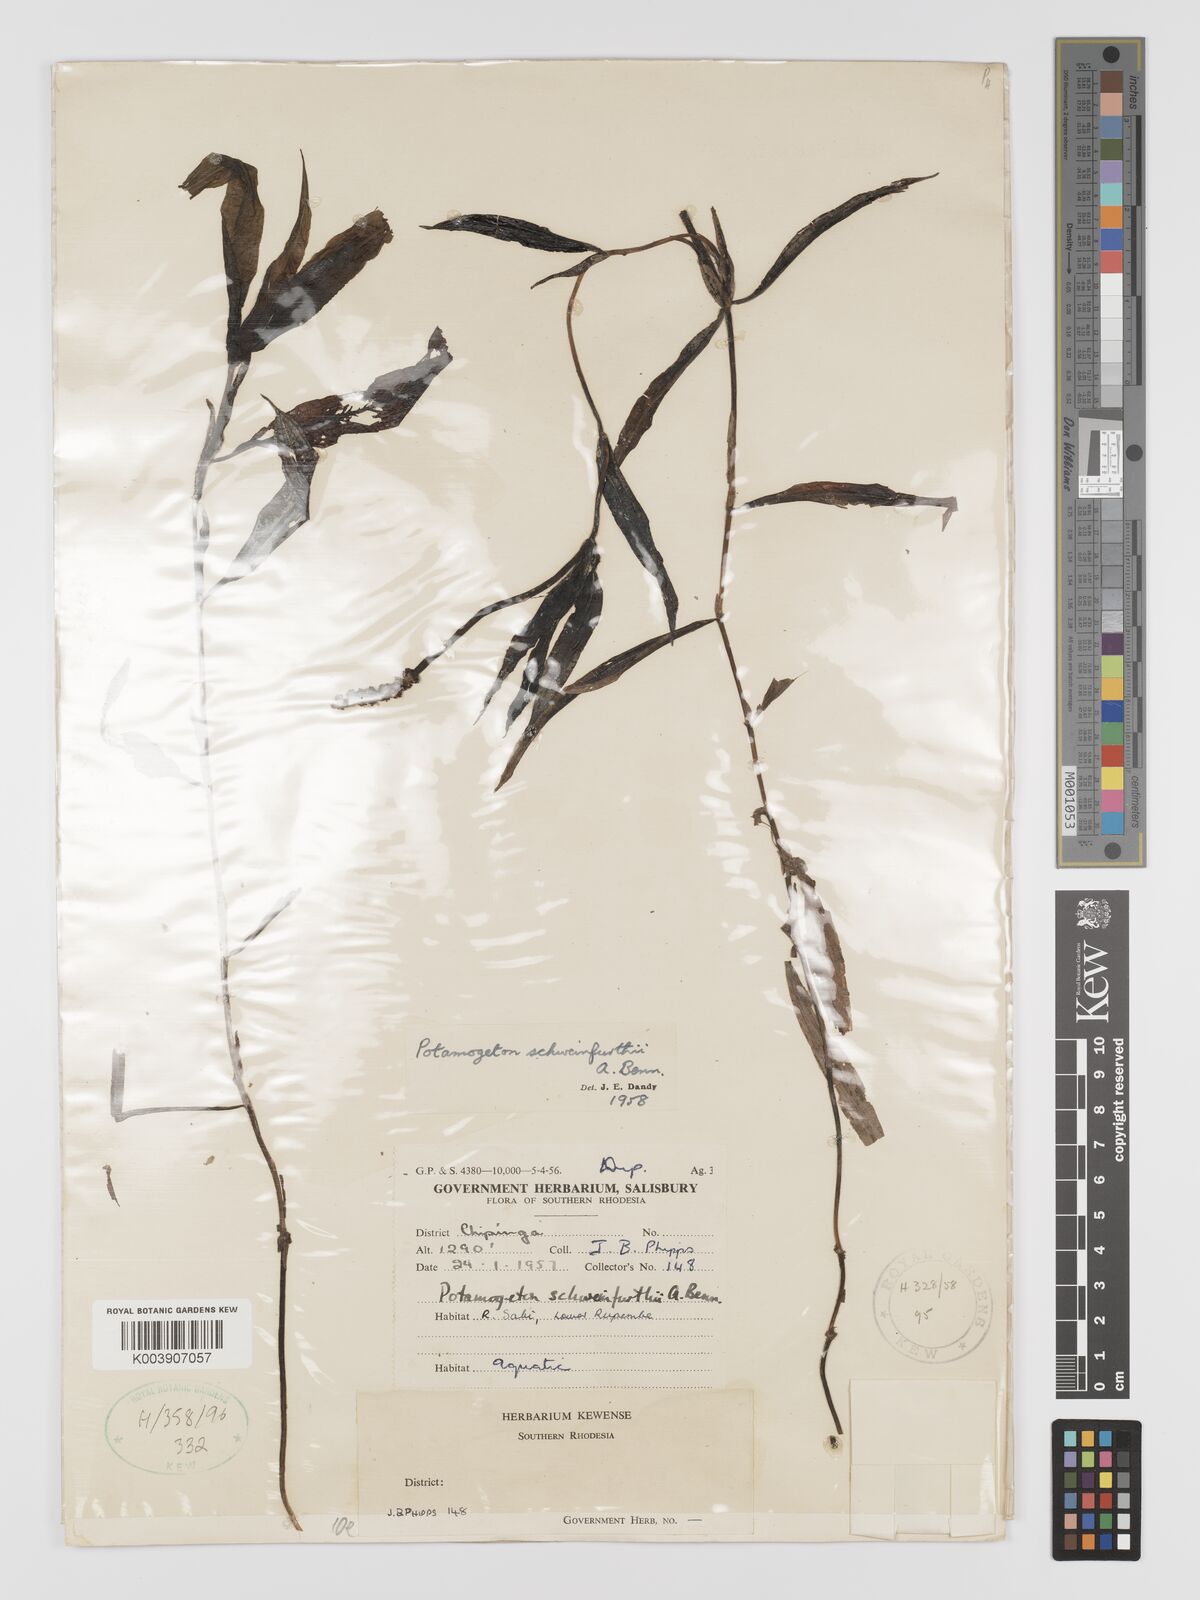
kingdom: Plantae
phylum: Tracheophyta
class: Liliopsida
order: Alismatales
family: Potamogetonaceae
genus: Potamogeton
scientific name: Potamogeton schweinfurthii
